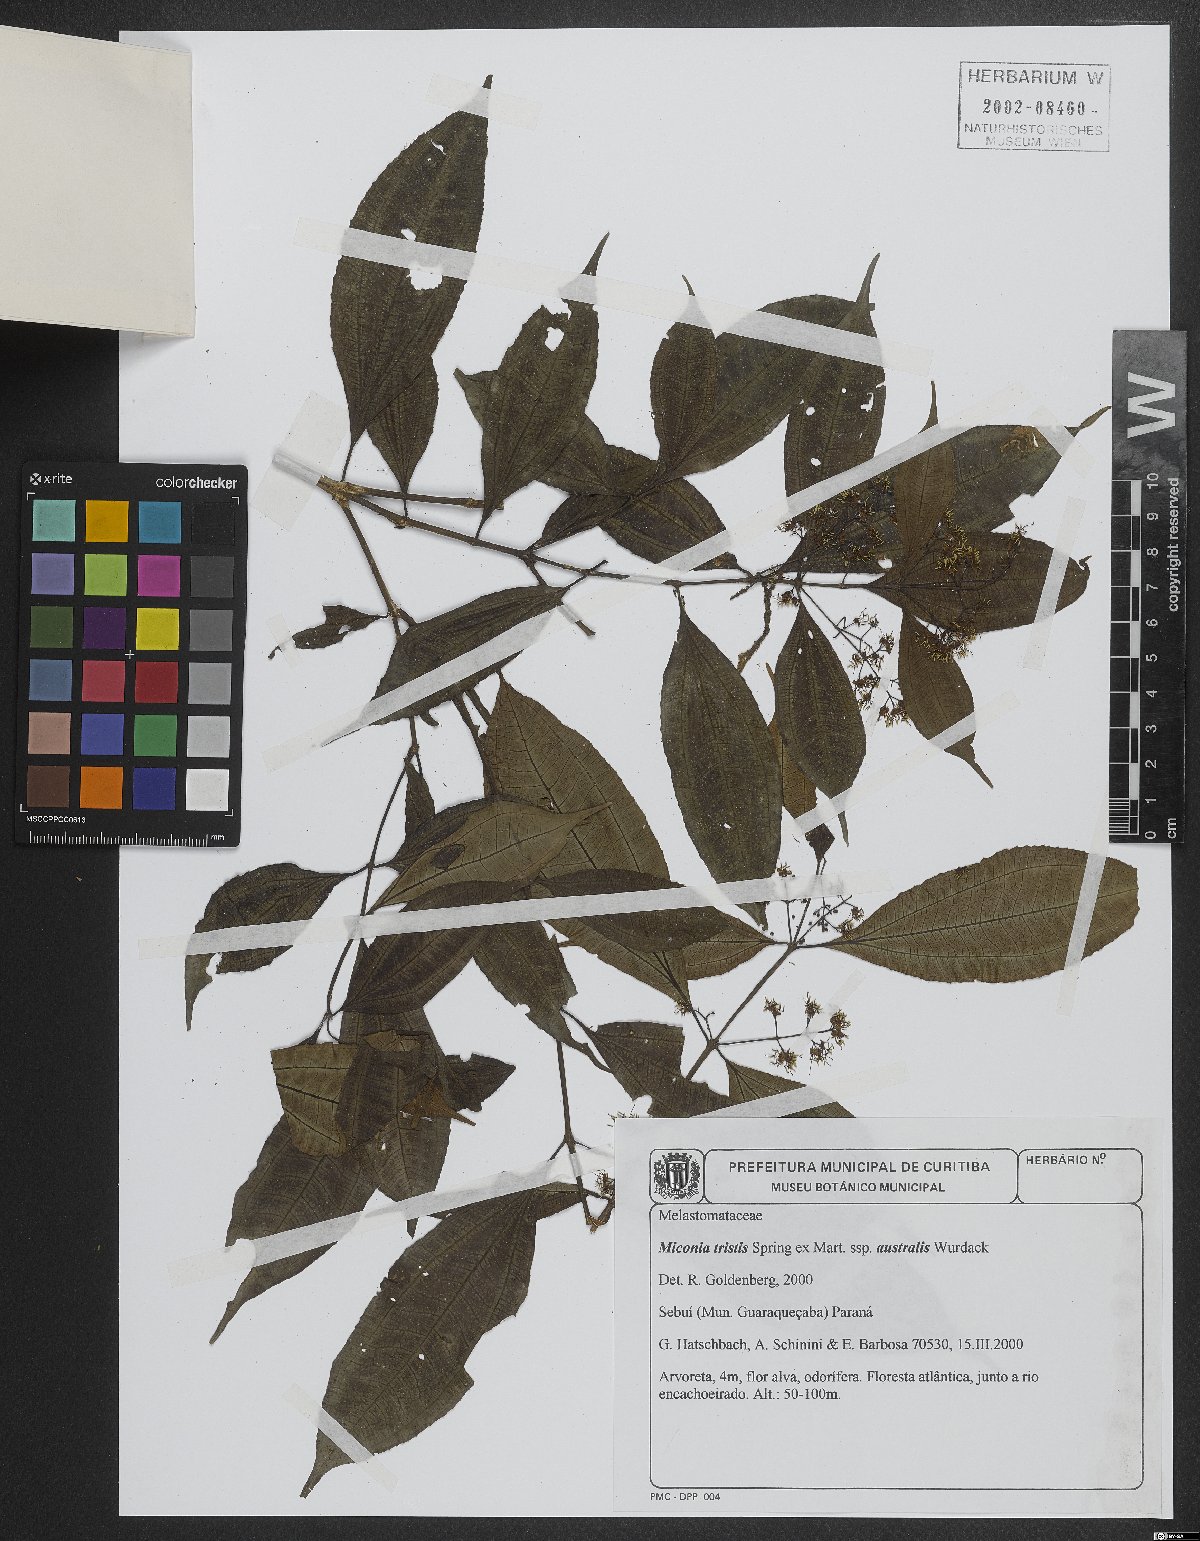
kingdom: Plantae
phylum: Tracheophyta
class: Magnoliopsida
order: Myrtales
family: Melastomataceae
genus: Miconia
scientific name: Miconia tristis
